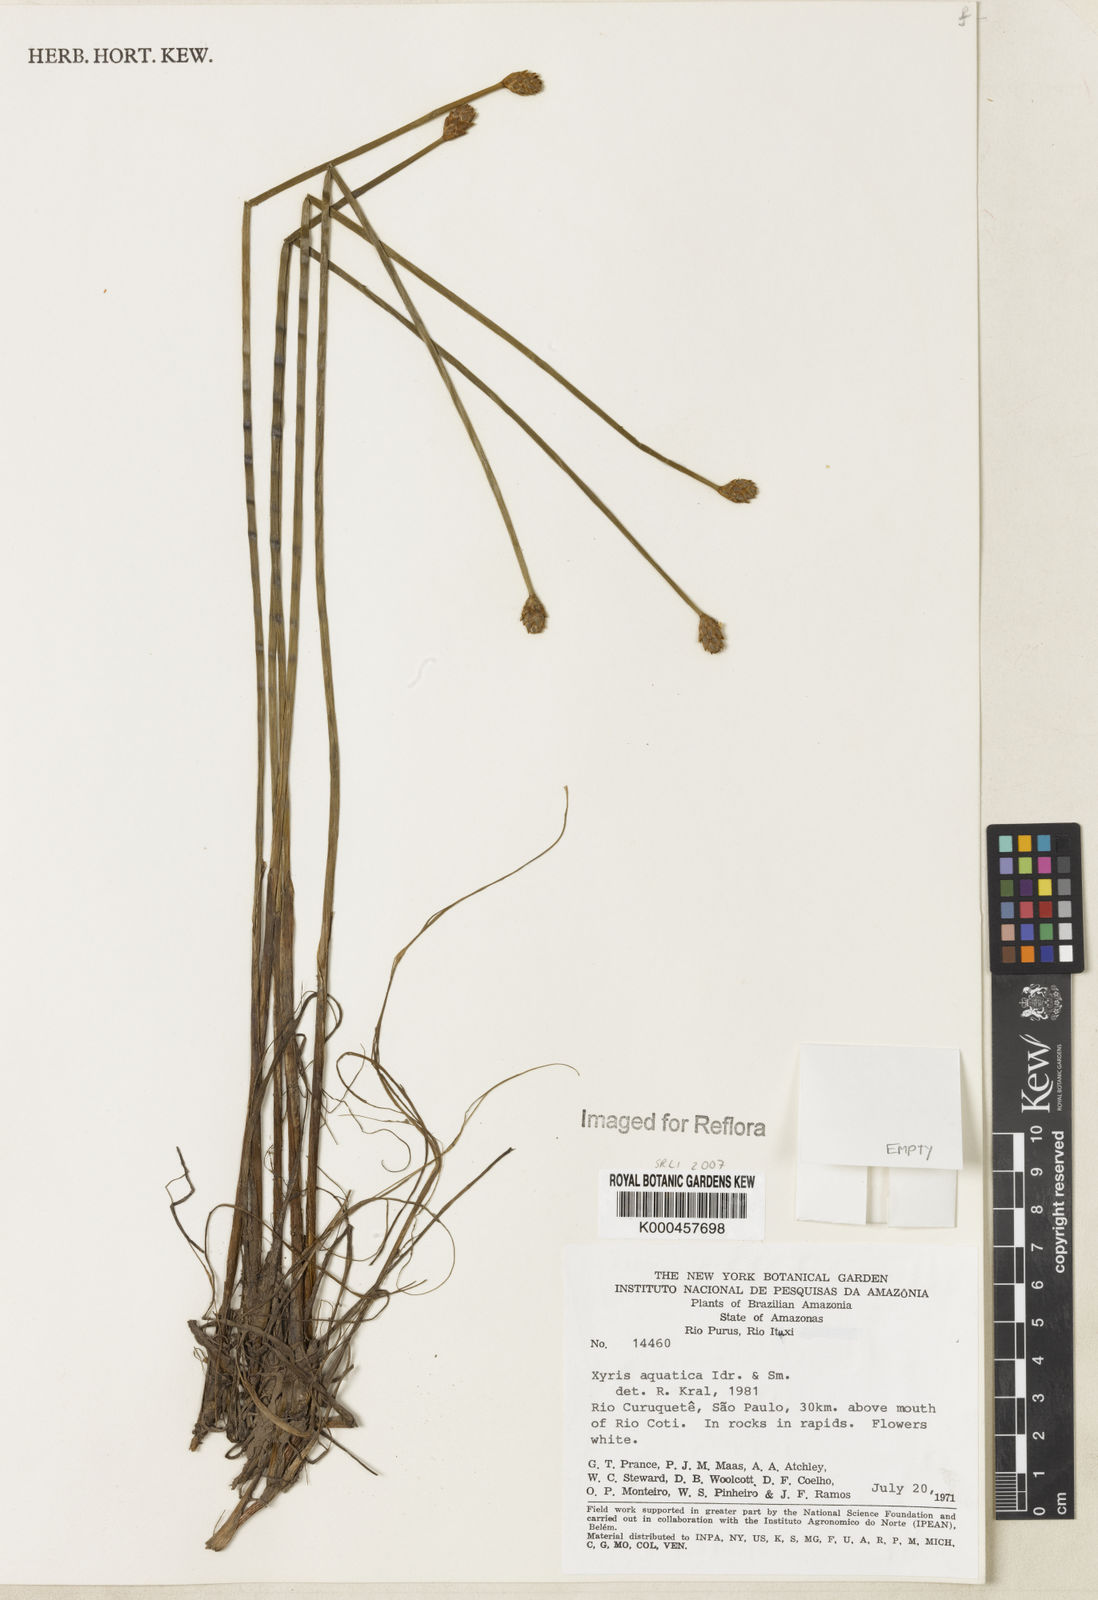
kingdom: Plantae
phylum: Tracheophyta
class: Liliopsida
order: Poales
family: Xyridaceae
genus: Xyris
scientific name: Xyris aquatica
